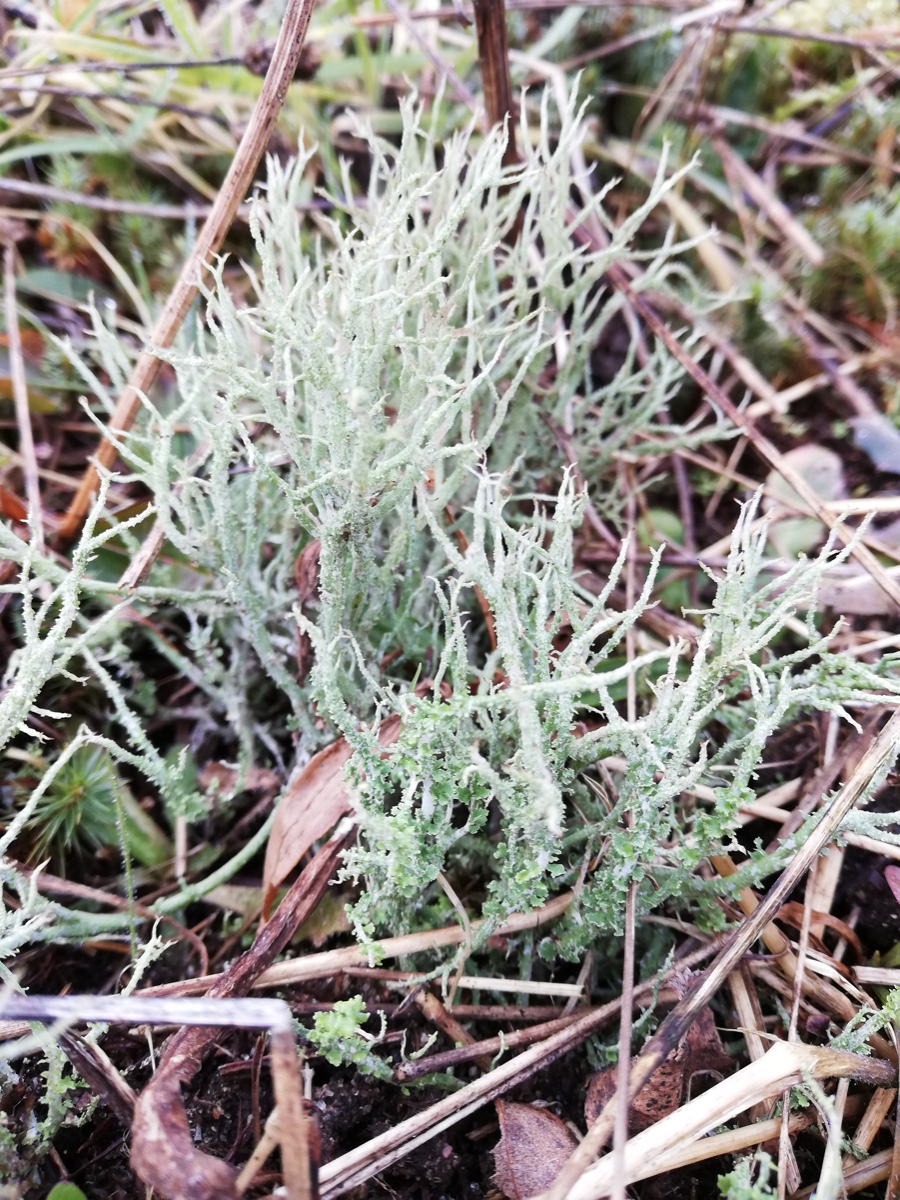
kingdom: Fungi
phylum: Ascomycota
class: Lecanoromycetes
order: Lecanorales
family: Cladoniaceae
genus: Cladonia
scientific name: Cladonia scabriuscula
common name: ru bægerlav
